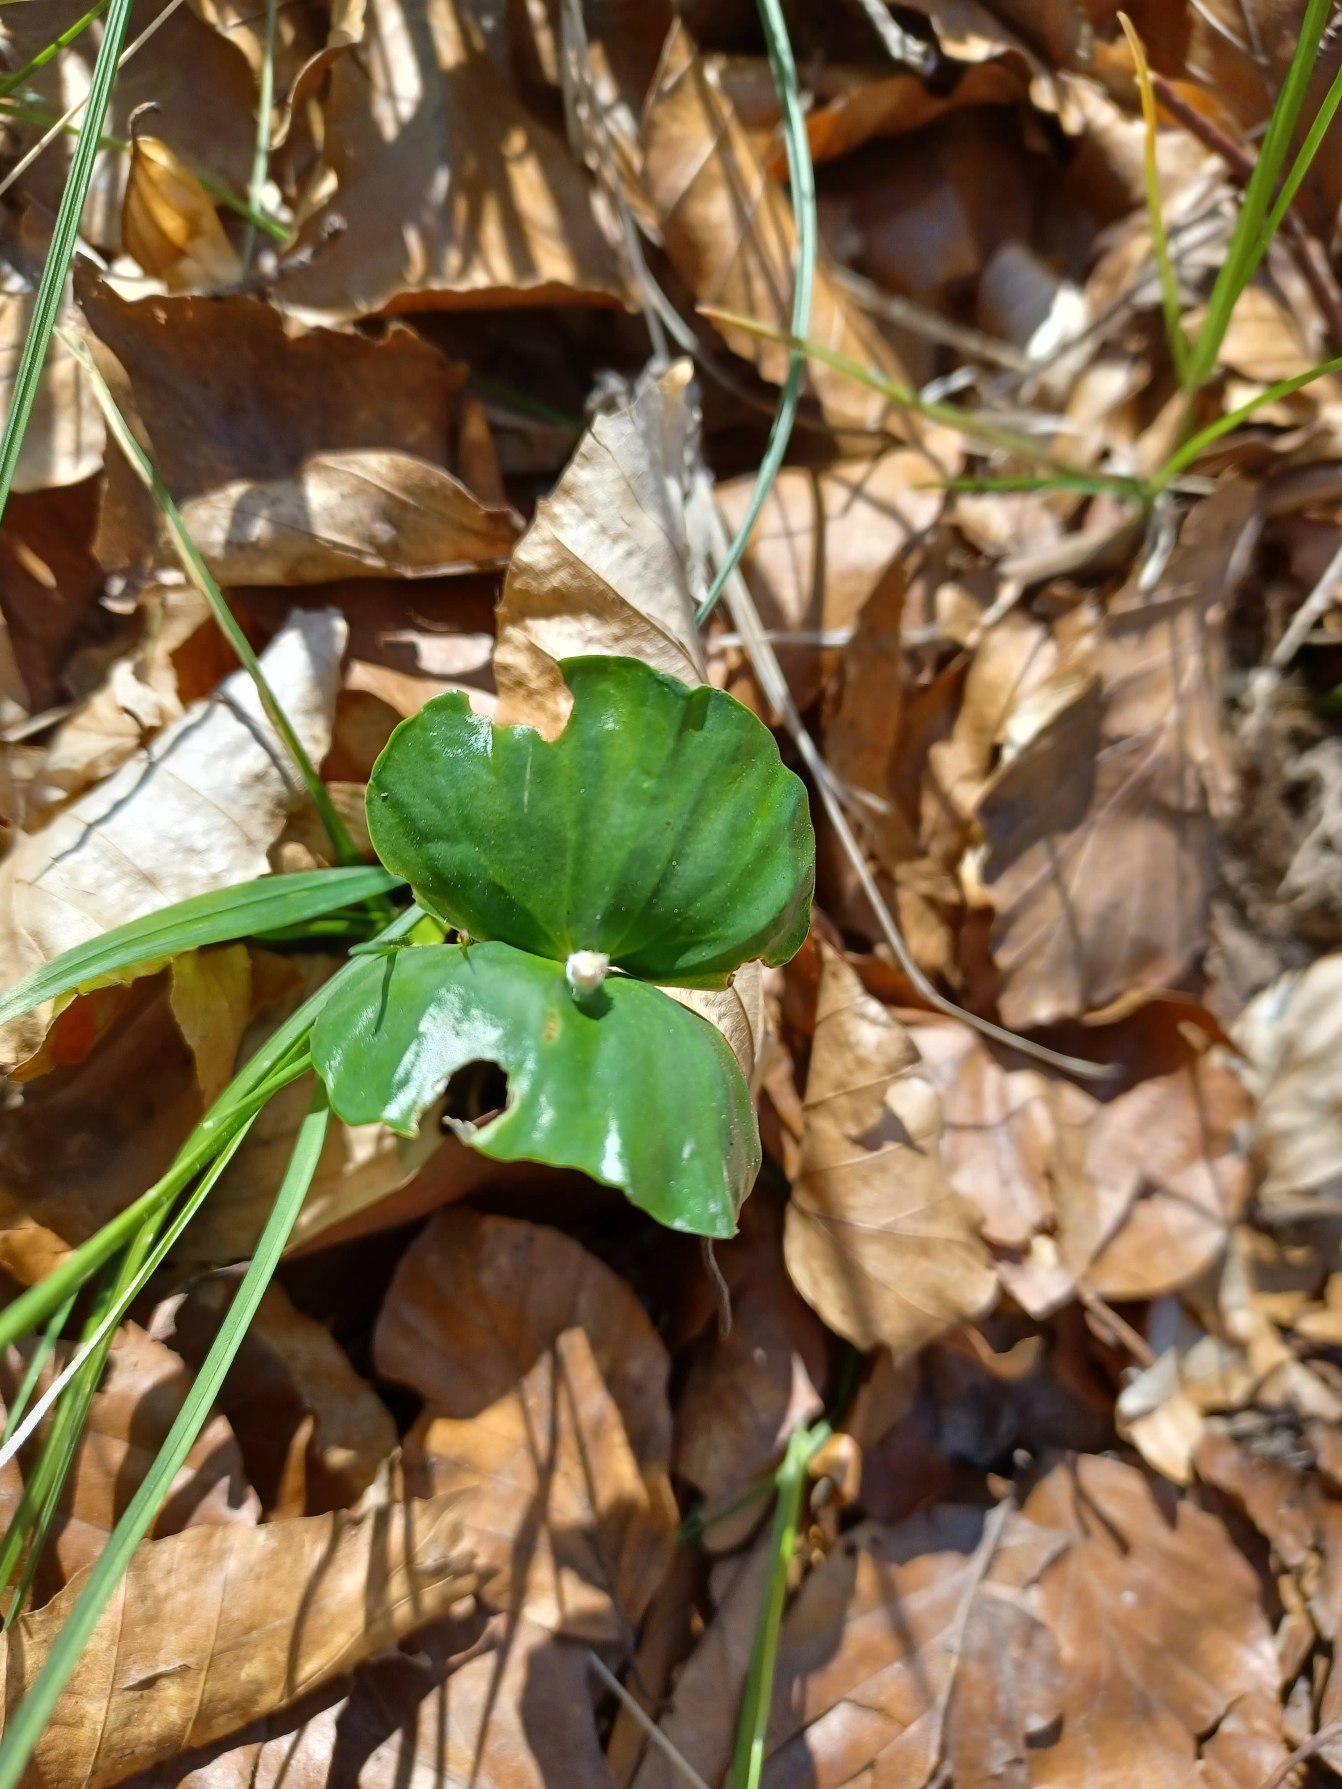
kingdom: Plantae
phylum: Tracheophyta
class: Magnoliopsida
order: Fagales
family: Fagaceae
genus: Fagus
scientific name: Fagus sylvatica
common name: Bøg
